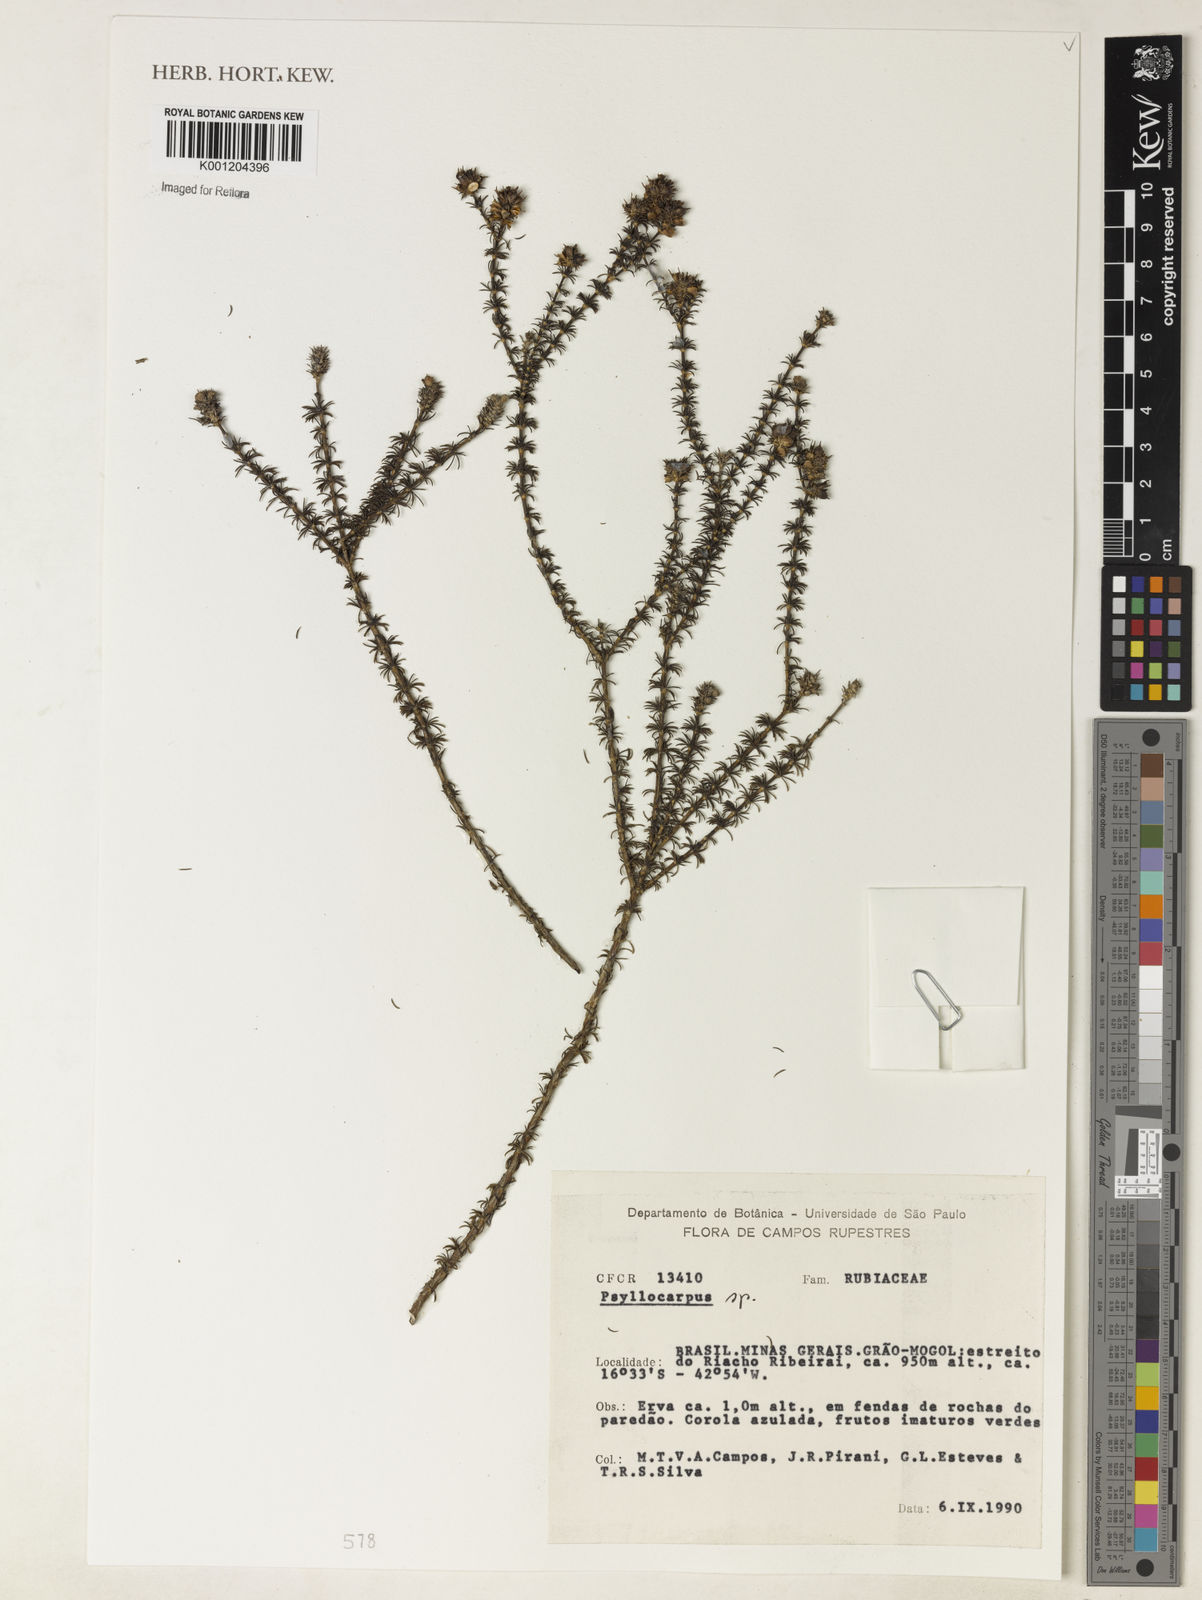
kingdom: Plantae
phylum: Tracheophyta
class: Magnoliopsida
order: Gentianales
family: Rubiaceae
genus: Psyllocarpus
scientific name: Psyllocarpus
